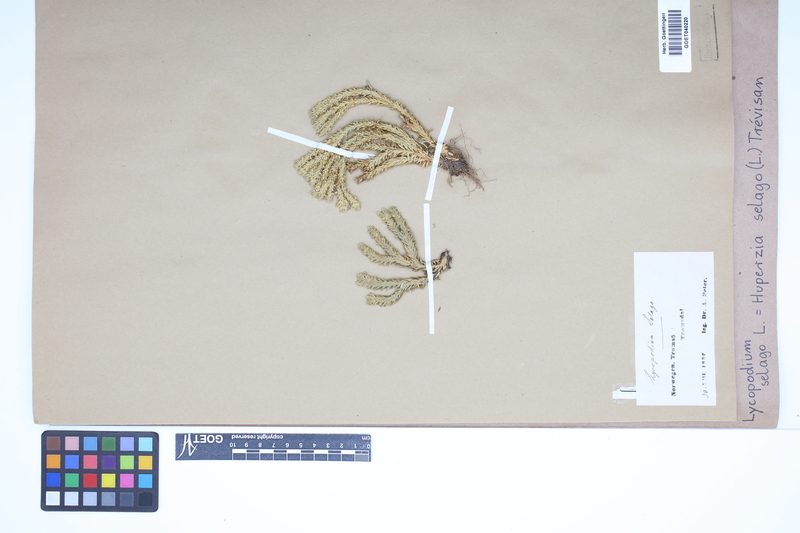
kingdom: Plantae
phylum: Tracheophyta
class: Lycopodiopsida
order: Lycopodiales
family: Lycopodiaceae
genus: Huperzia
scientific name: Huperzia selago
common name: Northern firmoss
